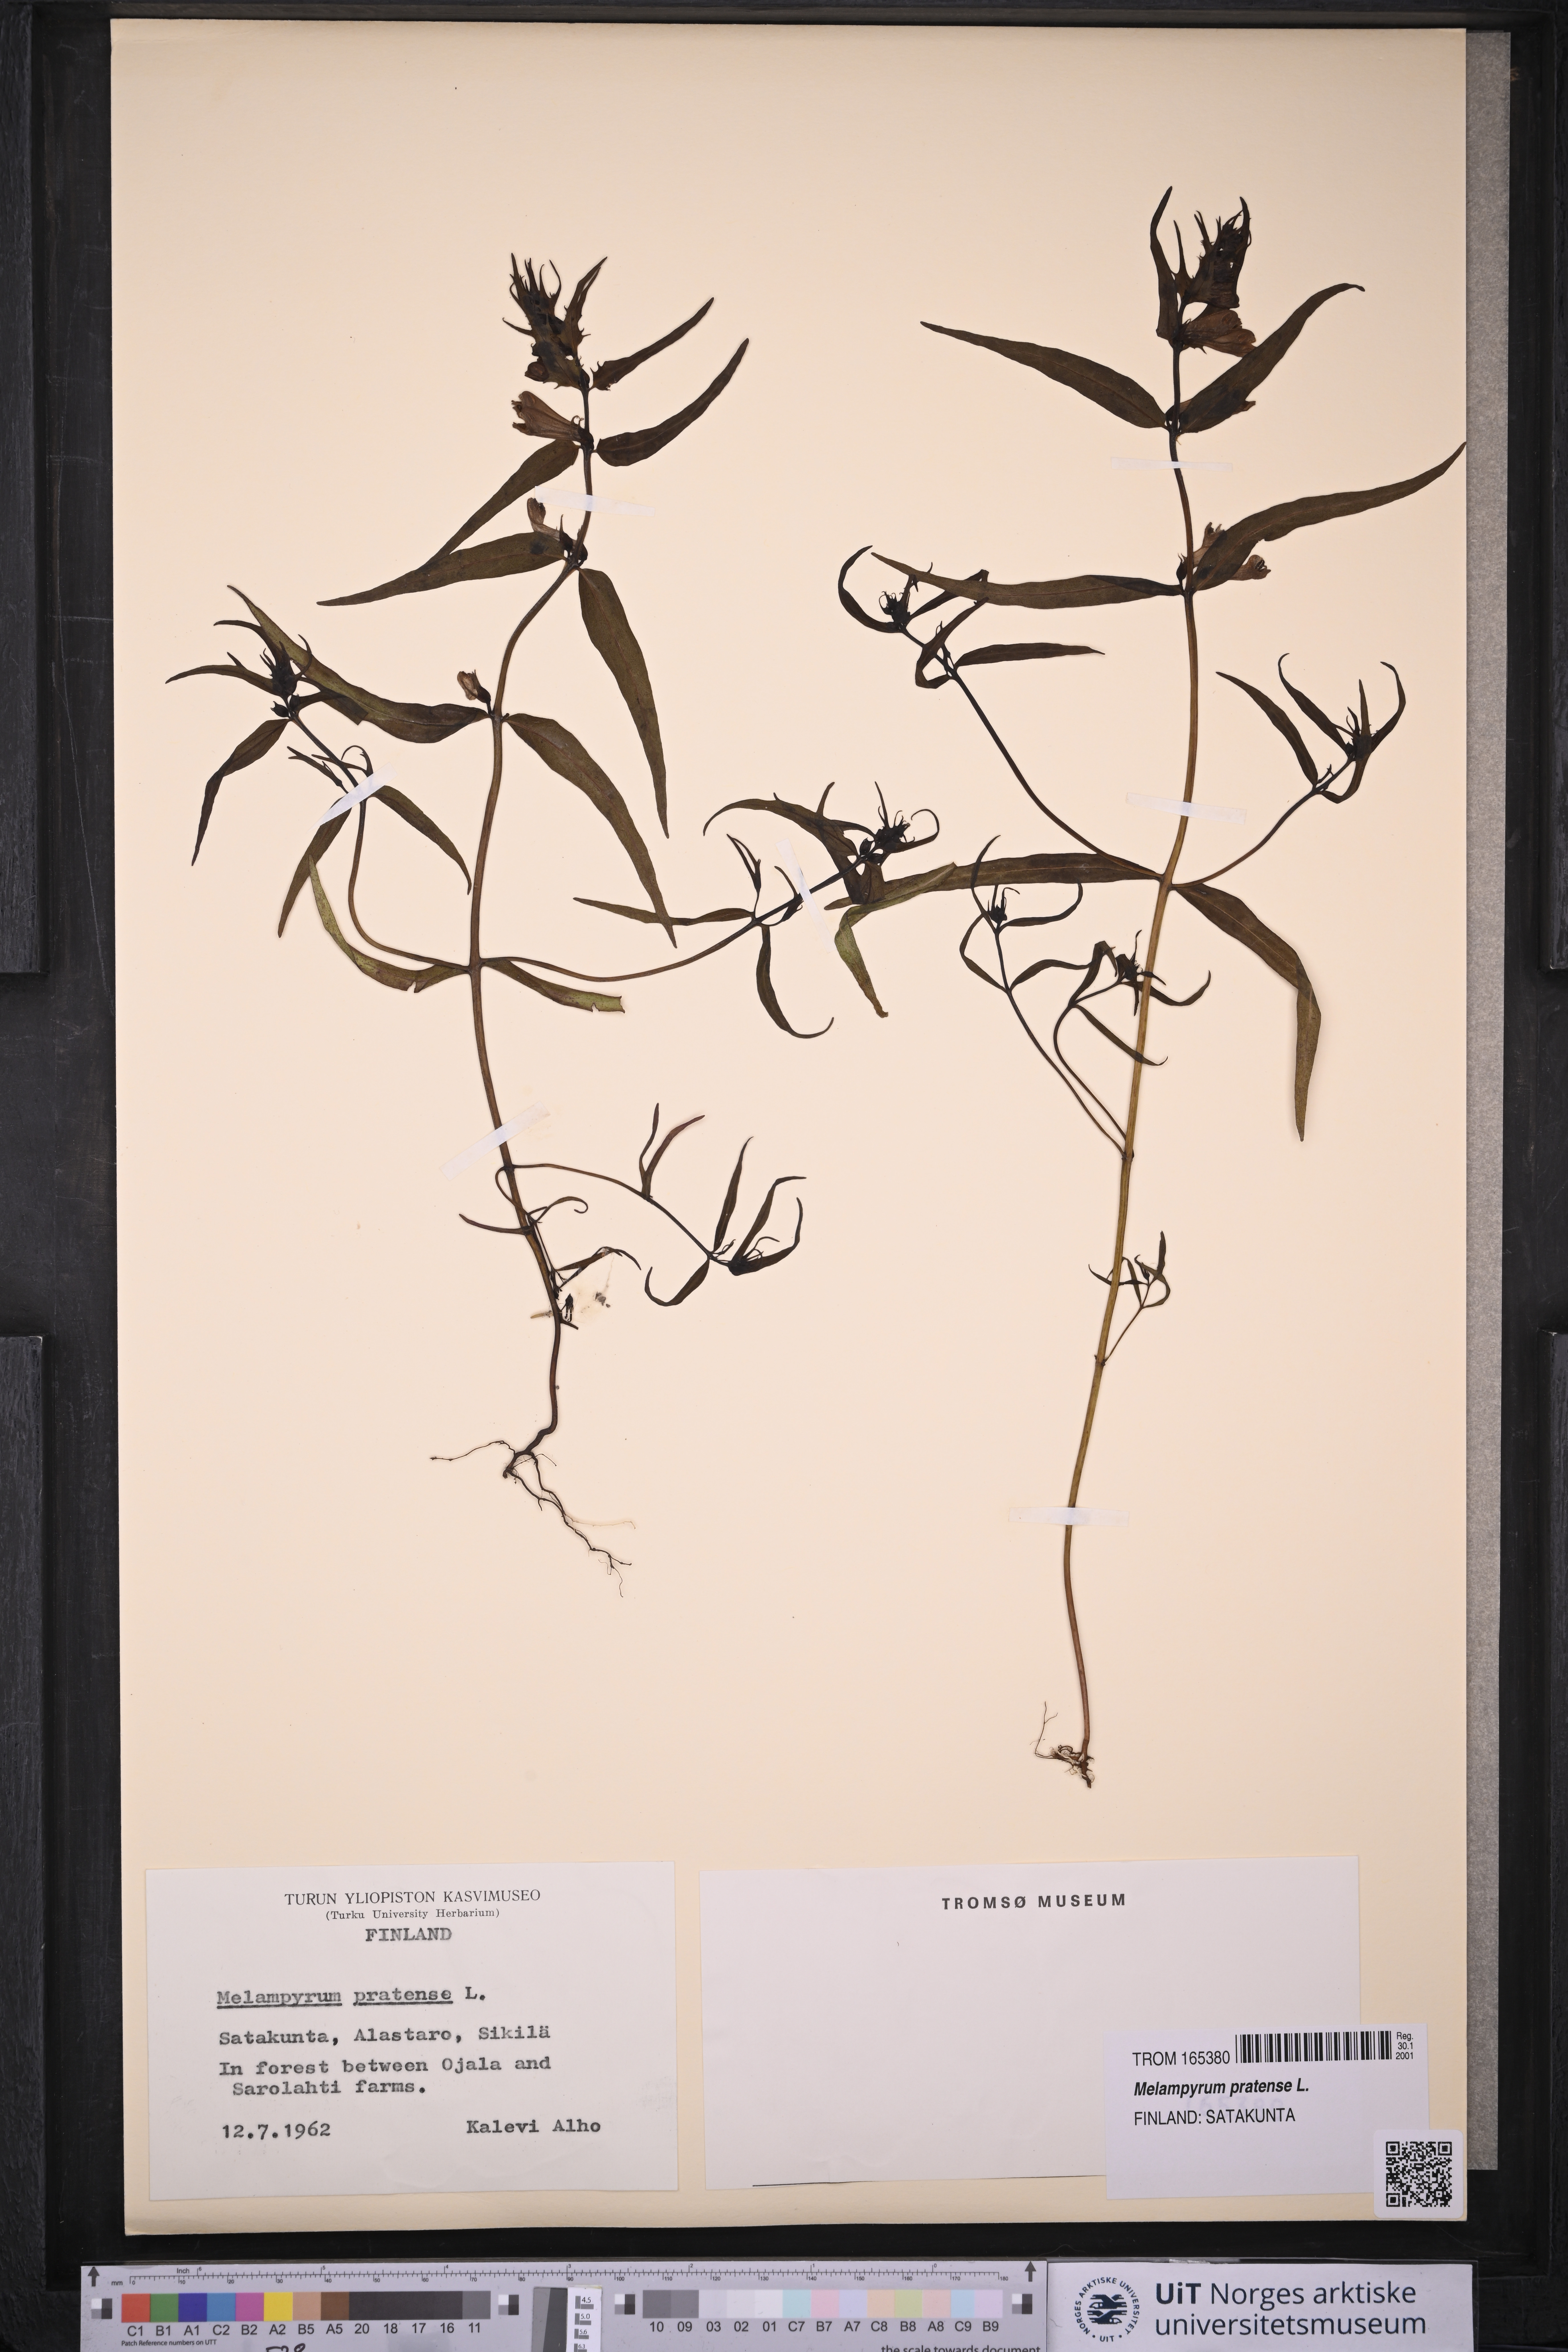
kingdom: Plantae
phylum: Tracheophyta
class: Magnoliopsida
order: Lamiales
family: Orobanchaceae
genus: Melampyrum
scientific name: Melampyrum pratense
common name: Common cow-wheat
